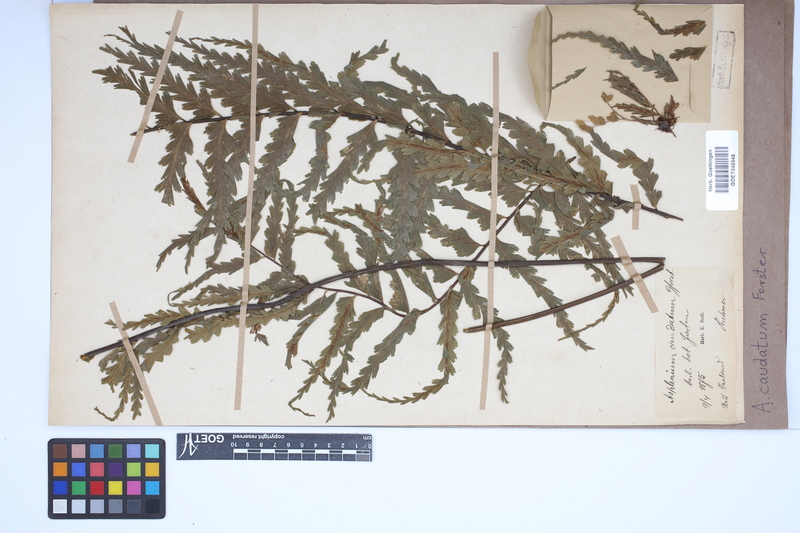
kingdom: Plantae
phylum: Tracheophyta
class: Polypodiopsida
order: Polypodiales
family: Aspleniaceae
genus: Asplenium
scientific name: Asplenium caudatum
